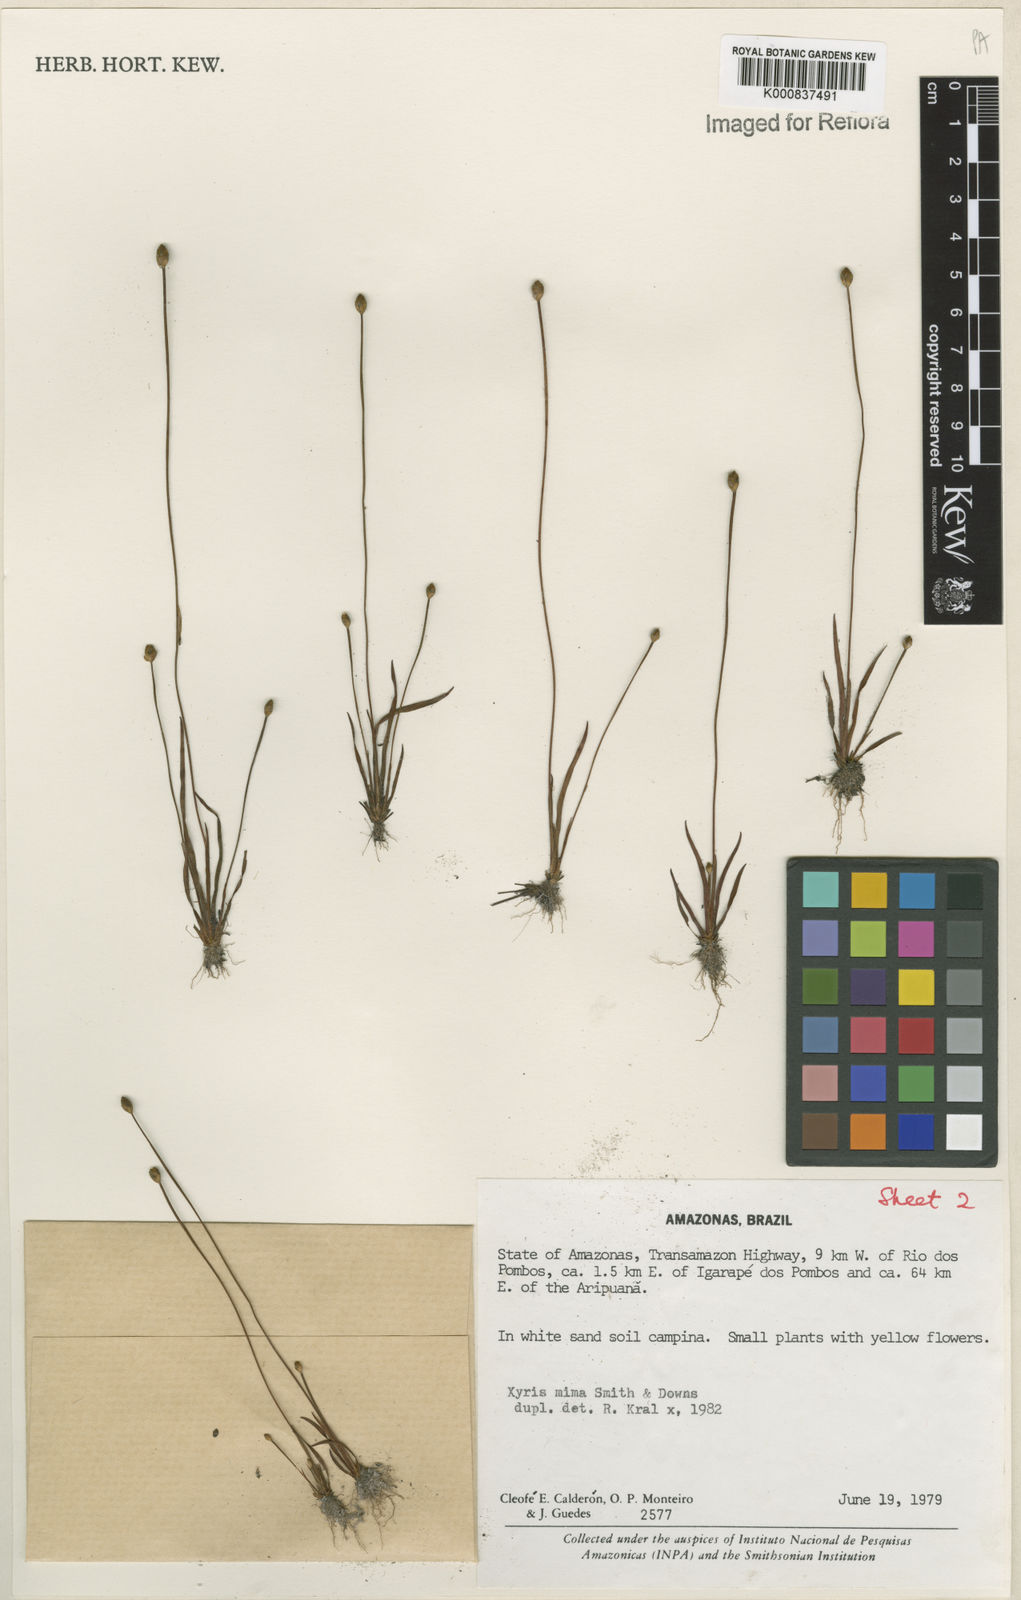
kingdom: Plantae
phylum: Tracheophyta
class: Liliopsida
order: Poales
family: Xyridaceae
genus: Xyris
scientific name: Xyris mima
